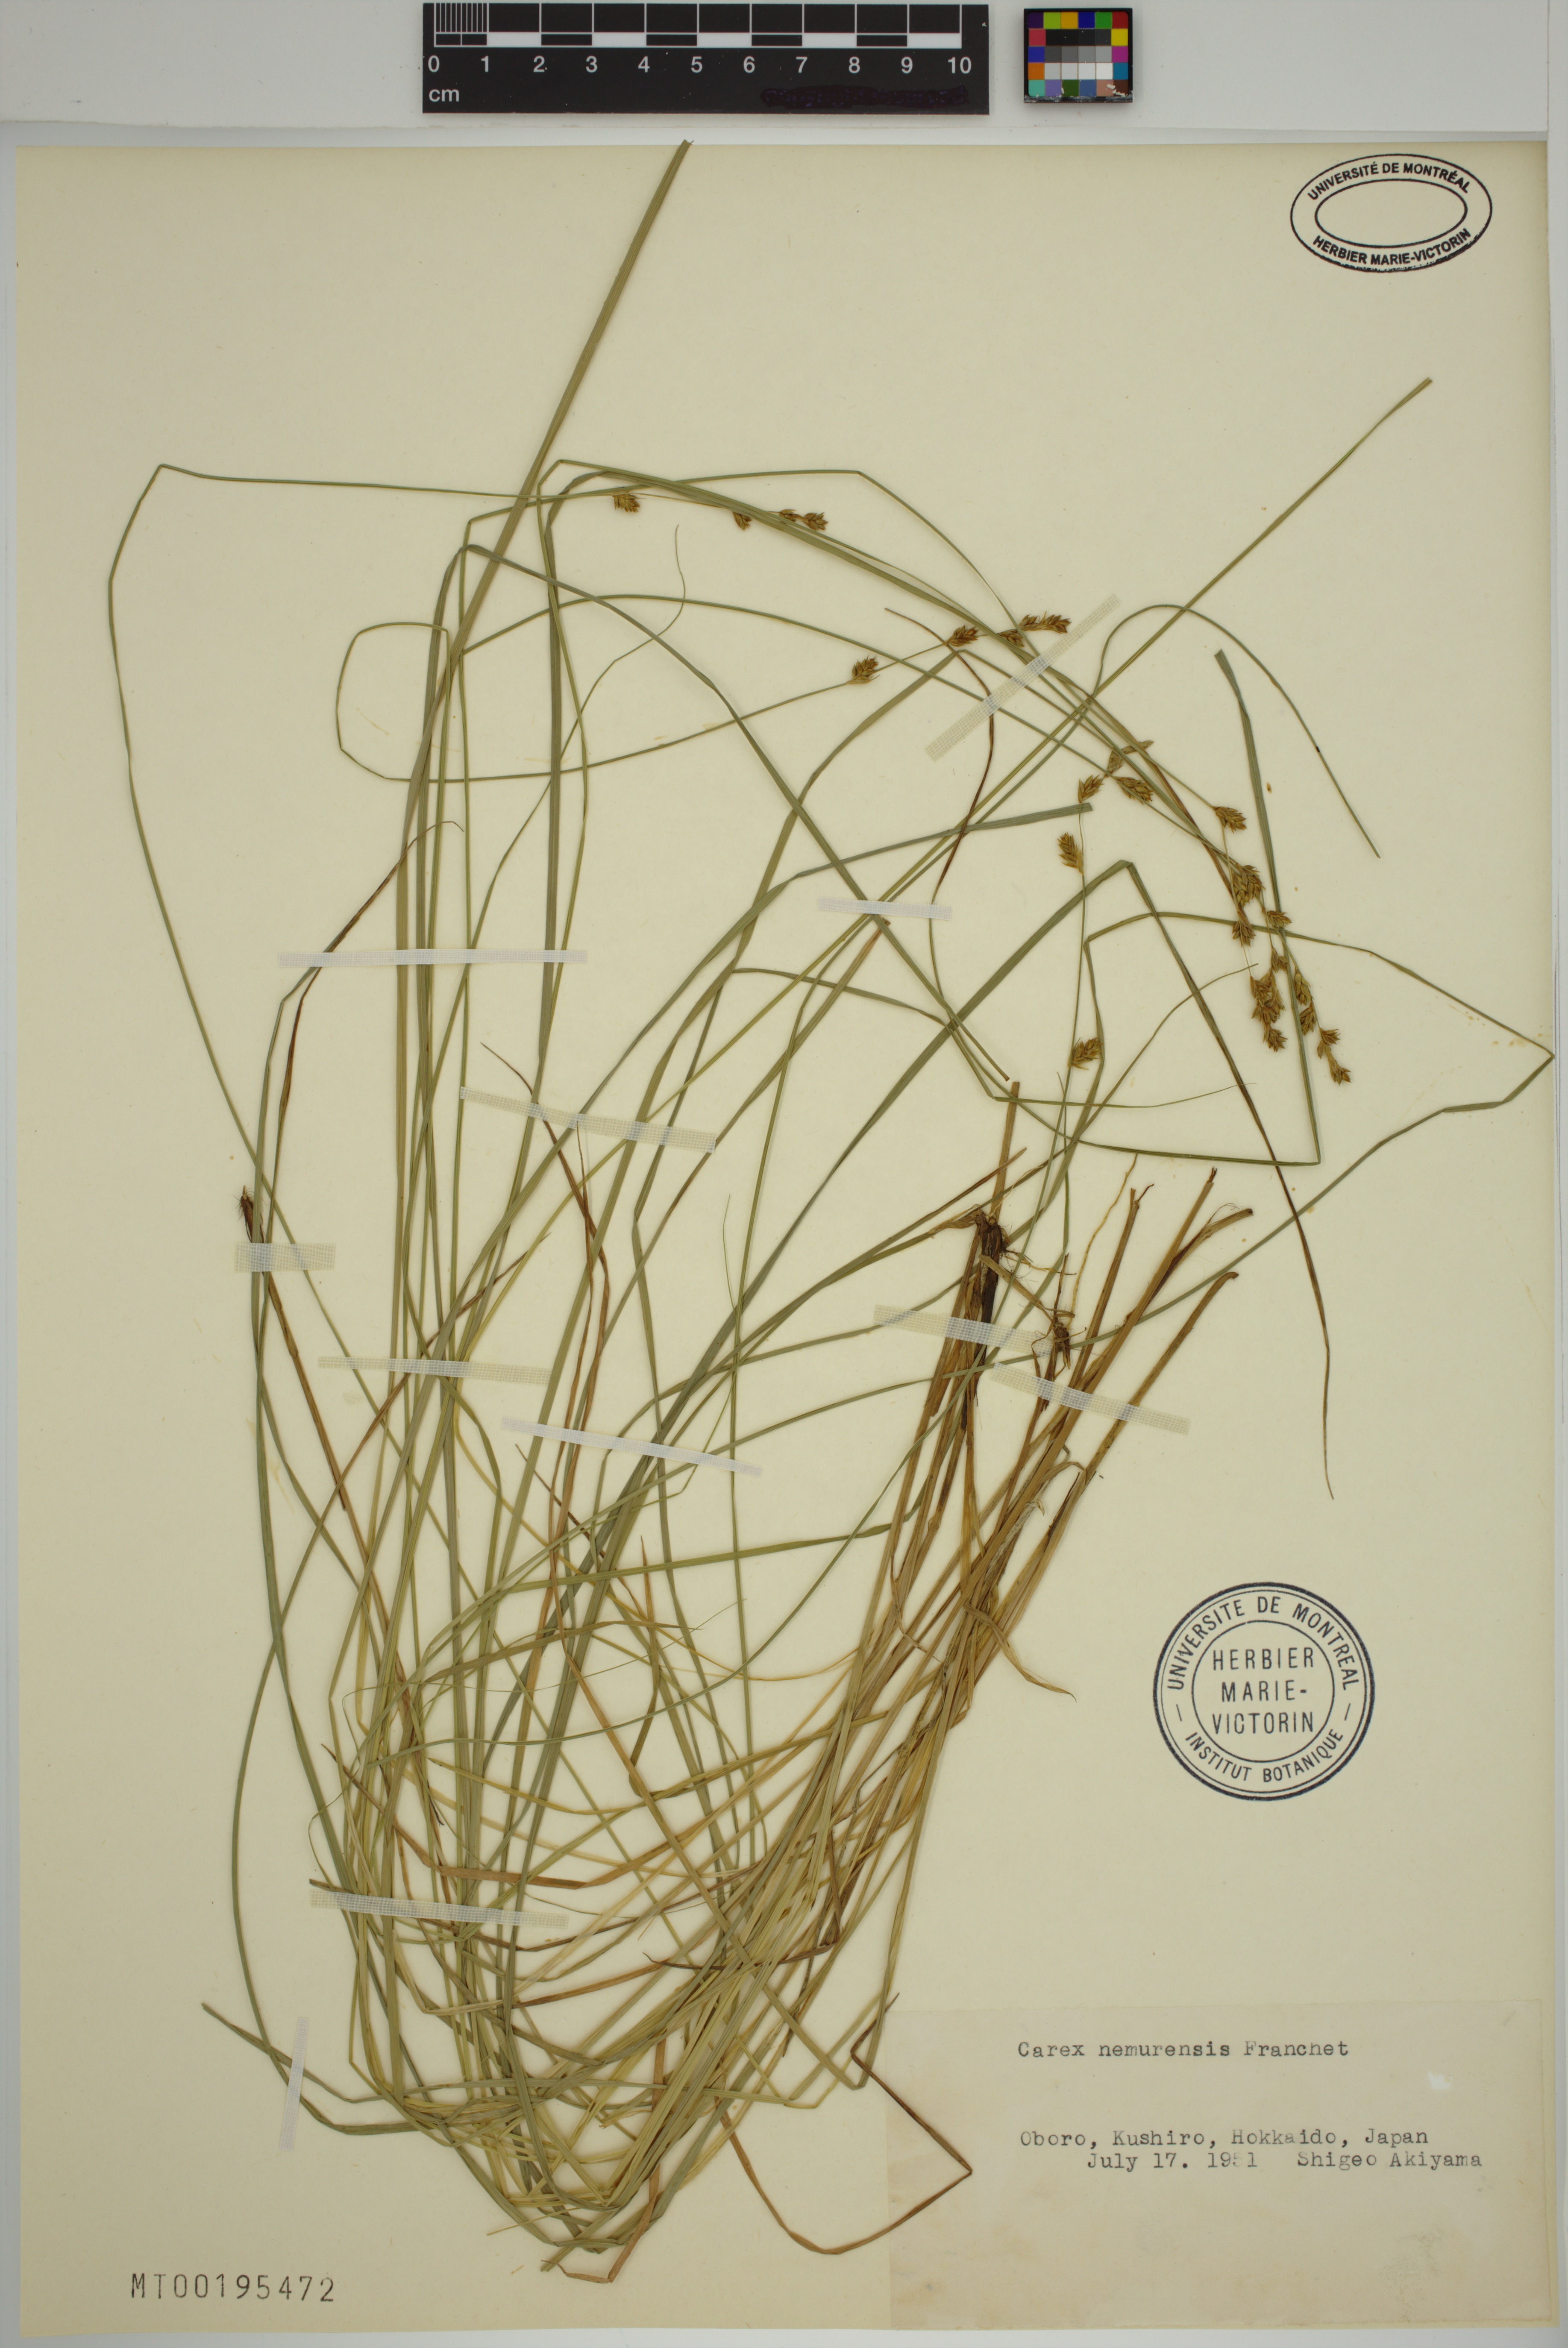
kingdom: Plantae
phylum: Tracheophyta
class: Liliopsida
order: Poales
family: Cyperaceae
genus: Carex
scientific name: Carex nemurensis
